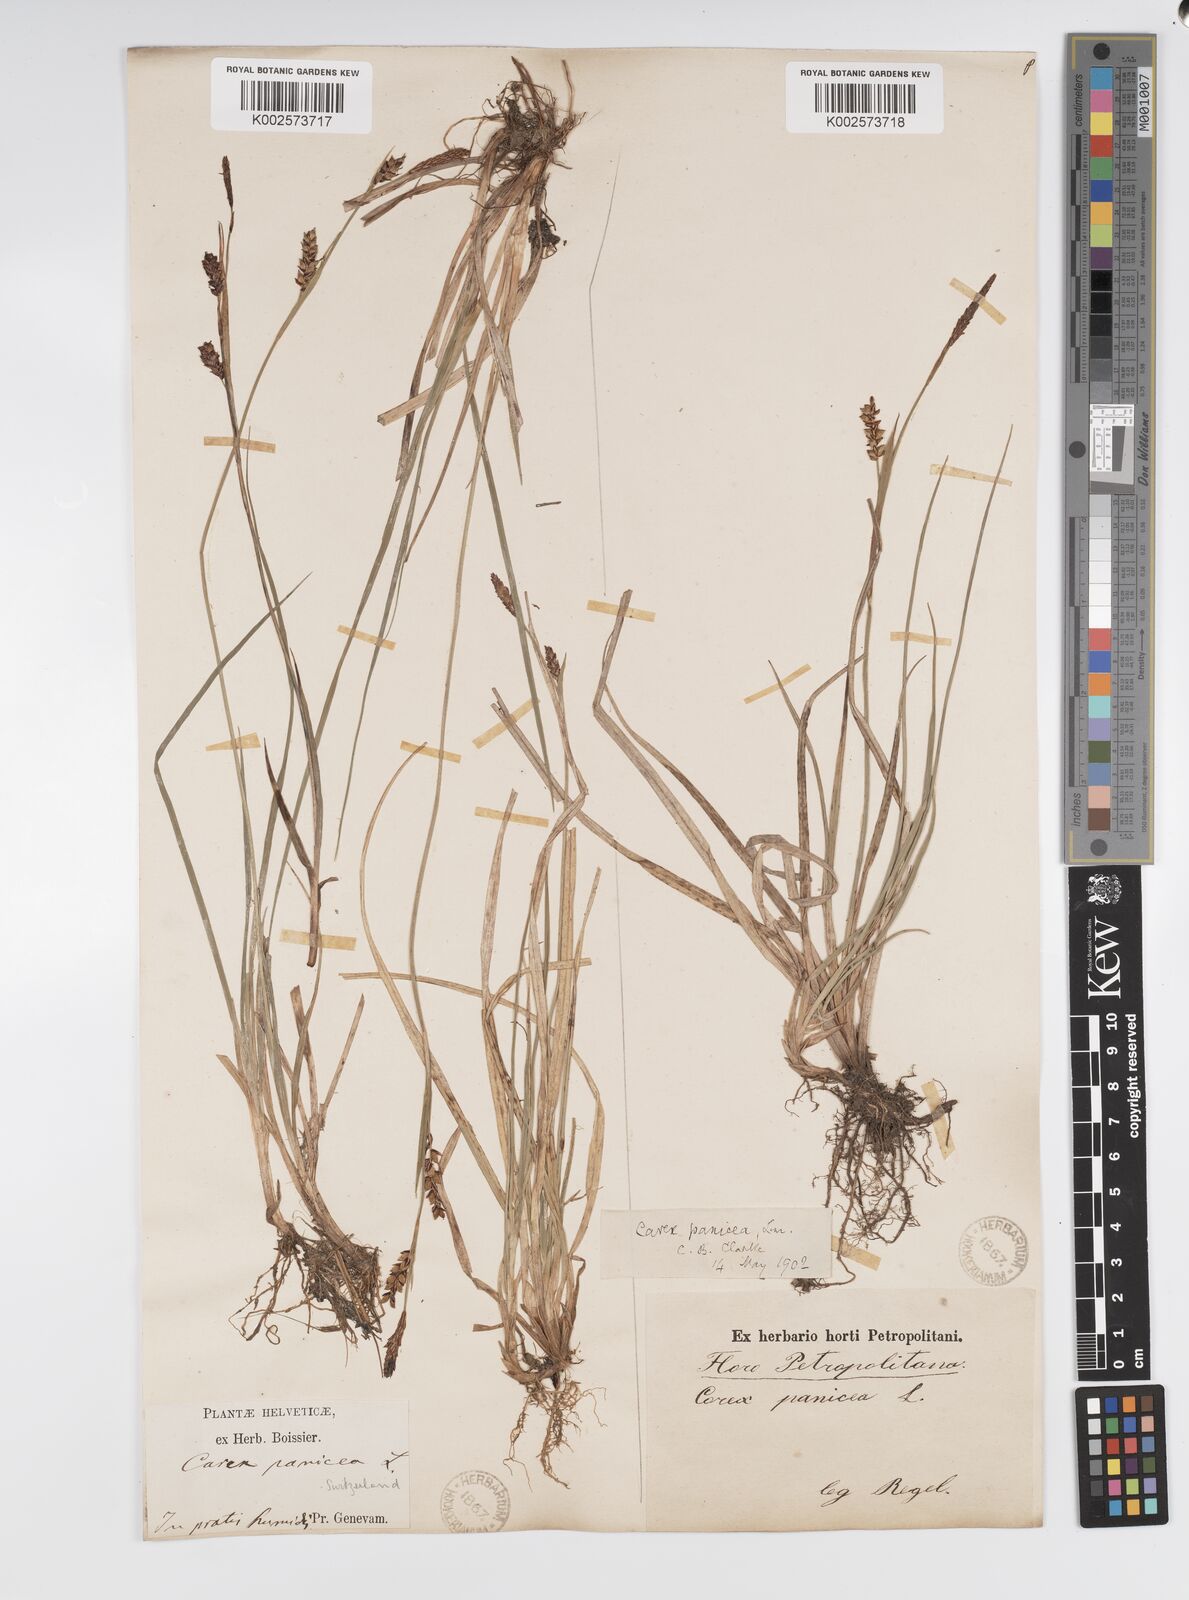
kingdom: Plantae
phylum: Tracheophyta
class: Liliopsida
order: Poales
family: Cyperaceae
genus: Carex
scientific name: Carex panicea
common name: Carnation sedge
